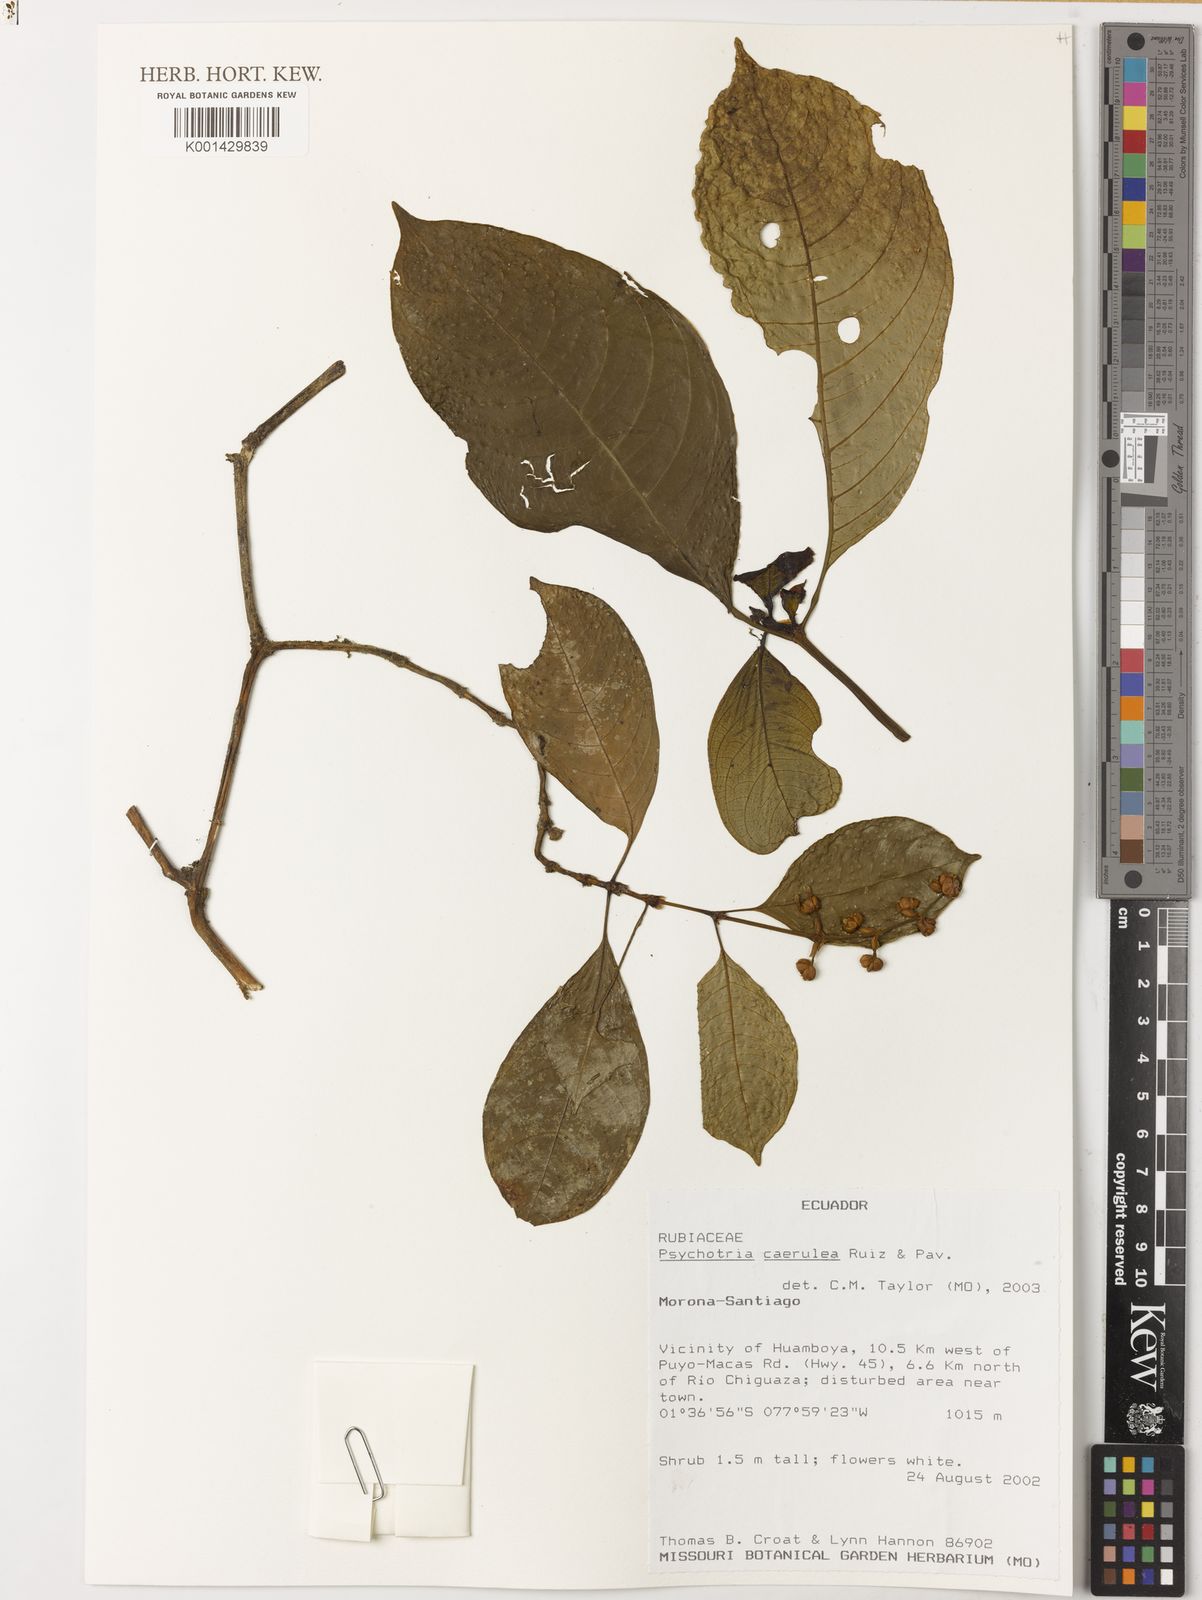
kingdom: Plantae
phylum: Tracheophyta
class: Magnoliopsida
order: Gentianales
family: Rubiaceae
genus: Palicourea
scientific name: Palicourea caerulea
